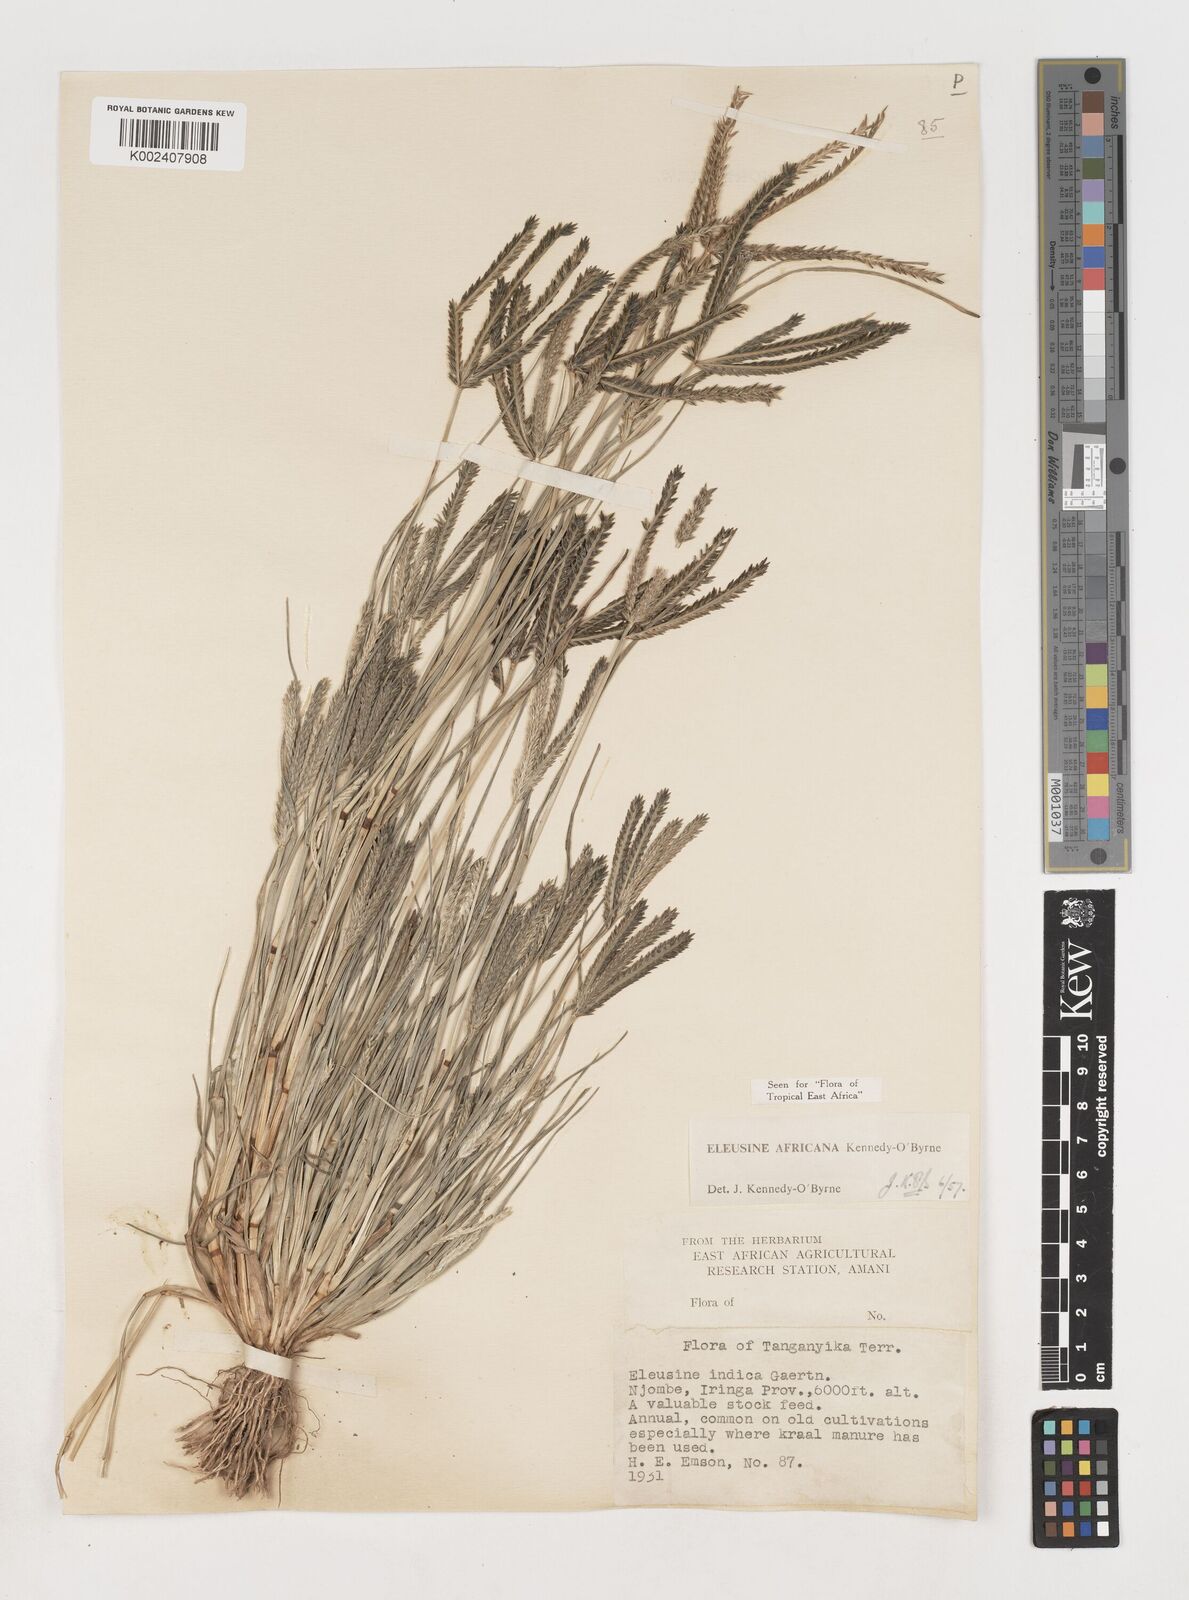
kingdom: Plantae
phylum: Tracheophyta
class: Liliopsida
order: Poales
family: Poaceae
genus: Eleusine
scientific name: Eleusine africana
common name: Wild african finger millet
